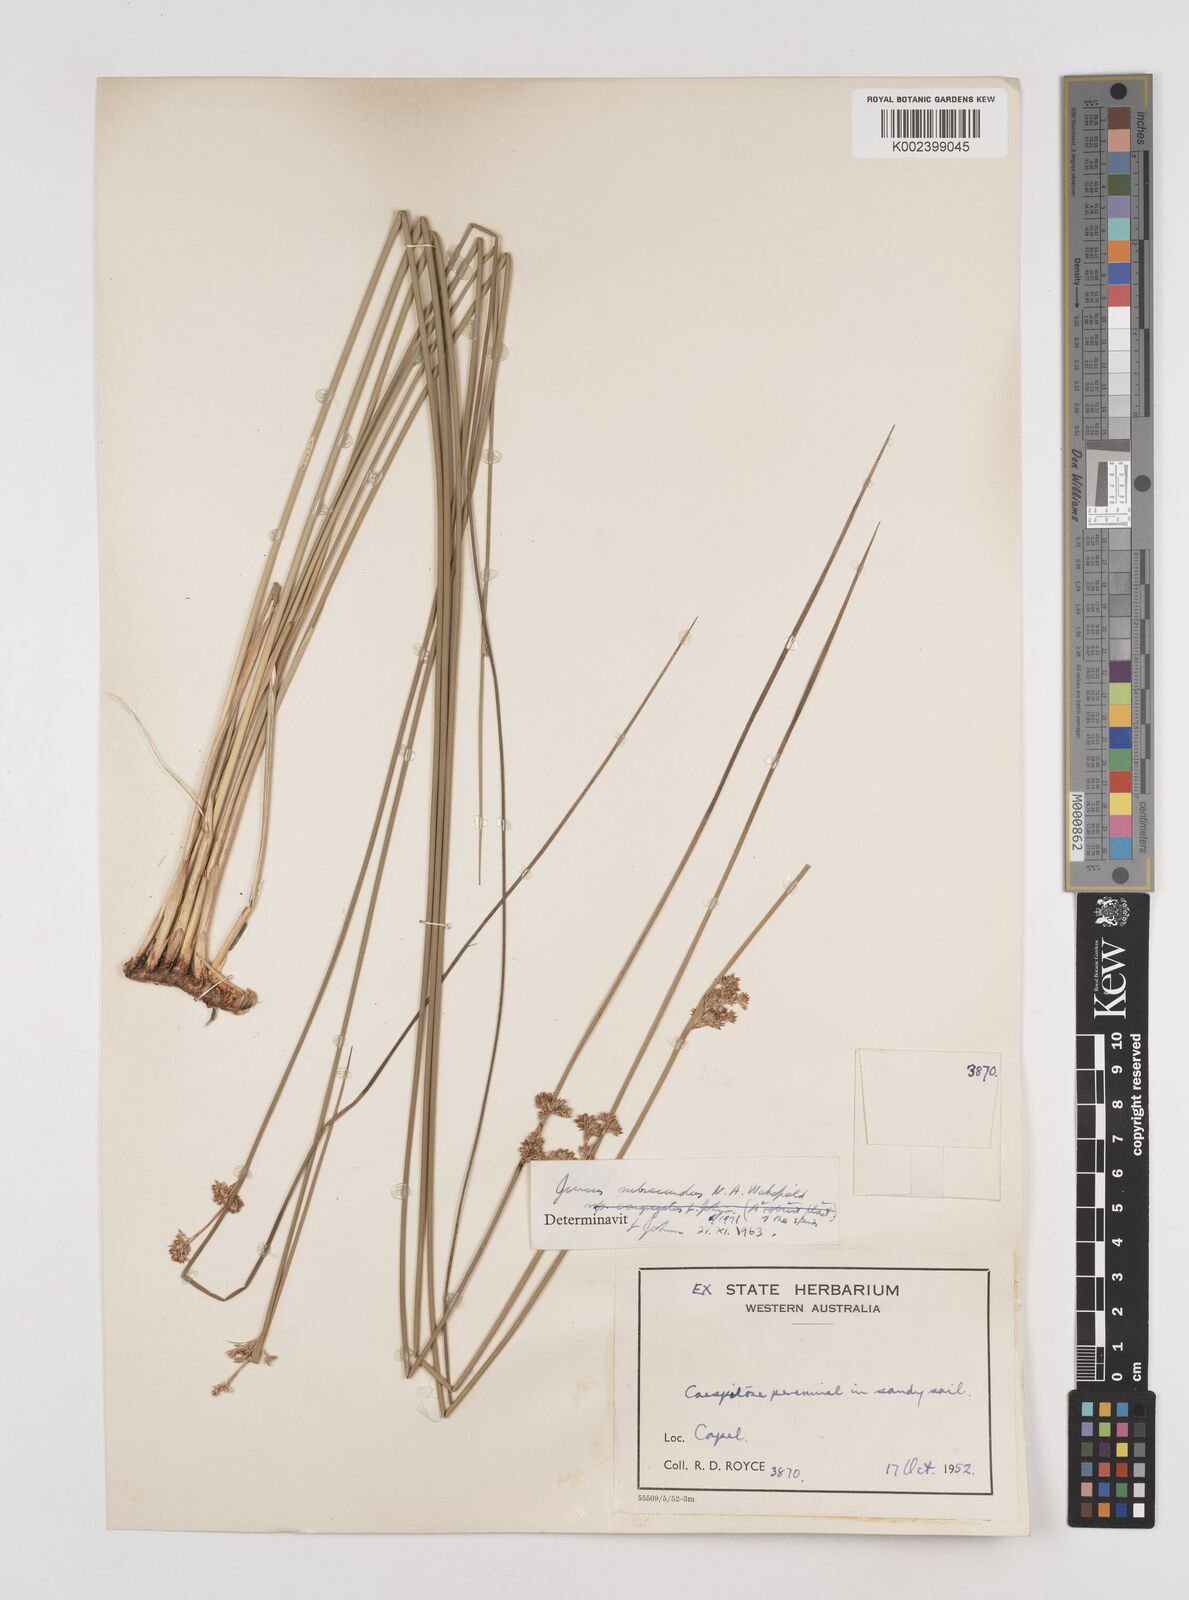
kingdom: Plantae
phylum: Tracheophyta
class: Liliopsida
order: Poales
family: Juncaceae
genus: Juncus
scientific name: Juncus subsecundus
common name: Fingered rush
